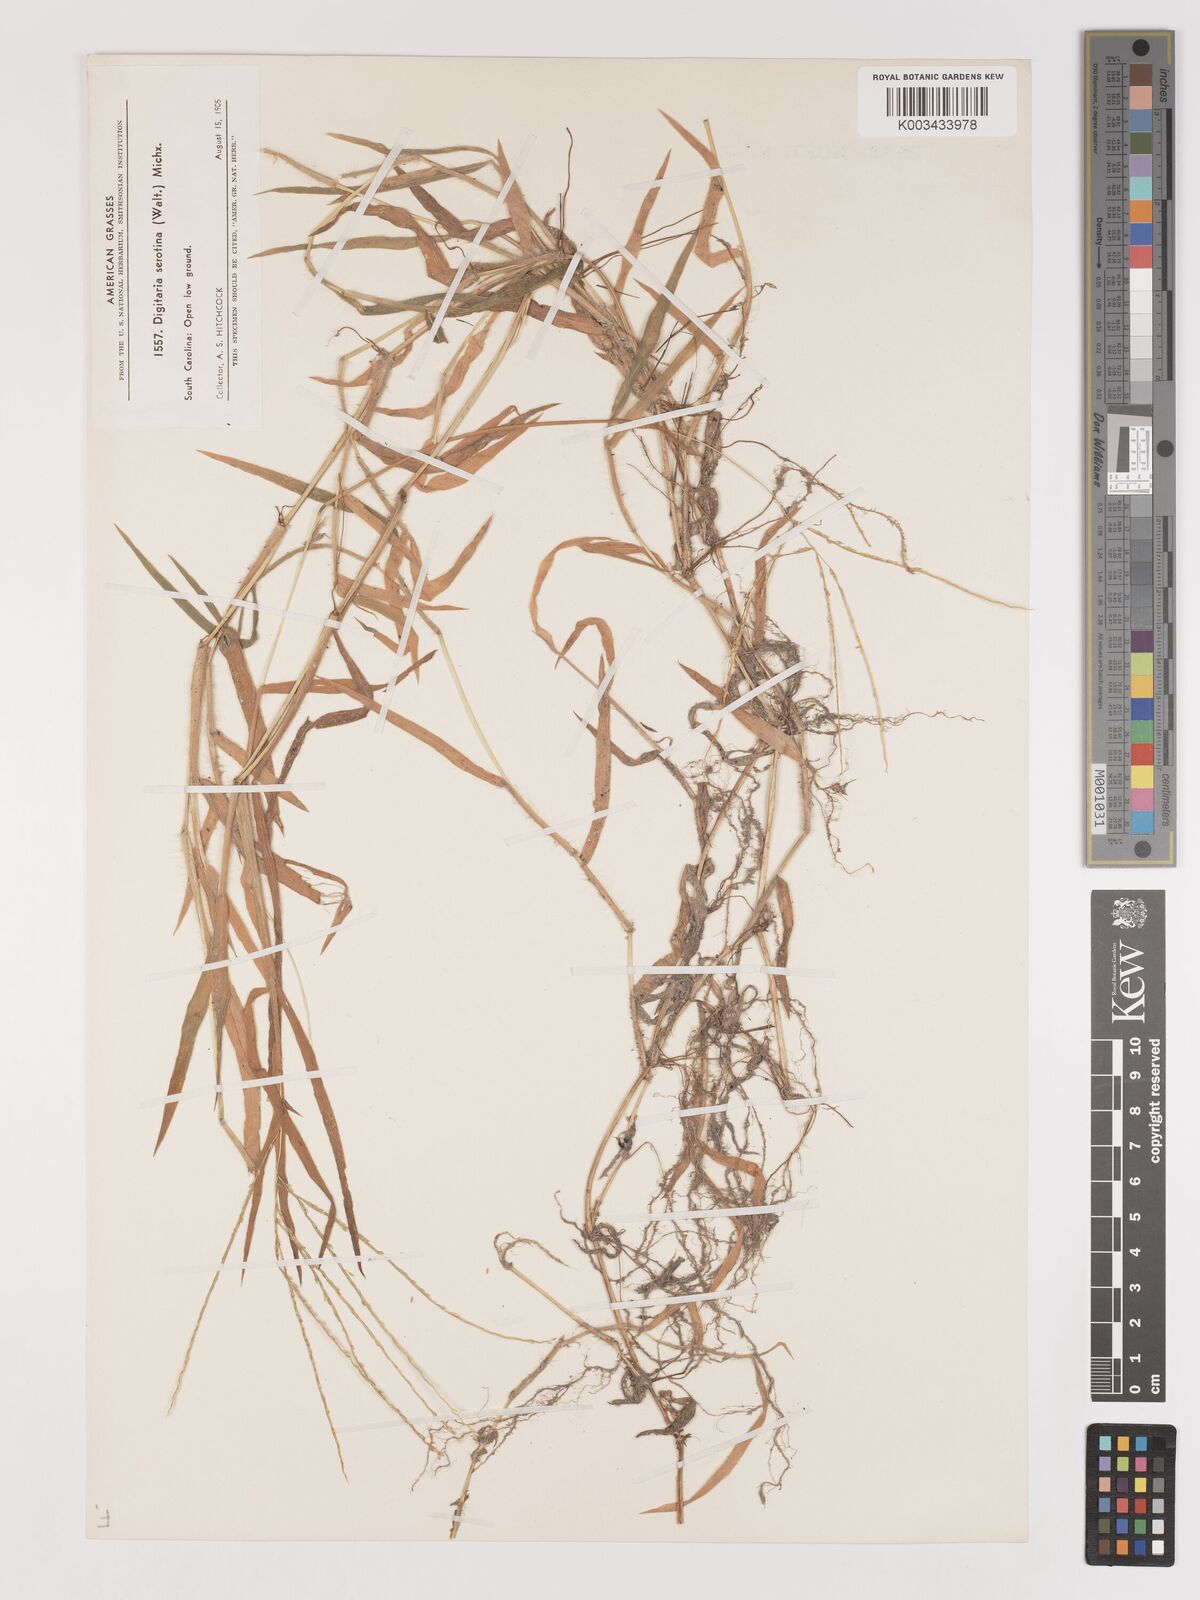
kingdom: Plantae
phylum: Tracheophyta
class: Liliopsida
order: Poales
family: Poaceae
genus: Digitaria
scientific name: Digitaria serotina
